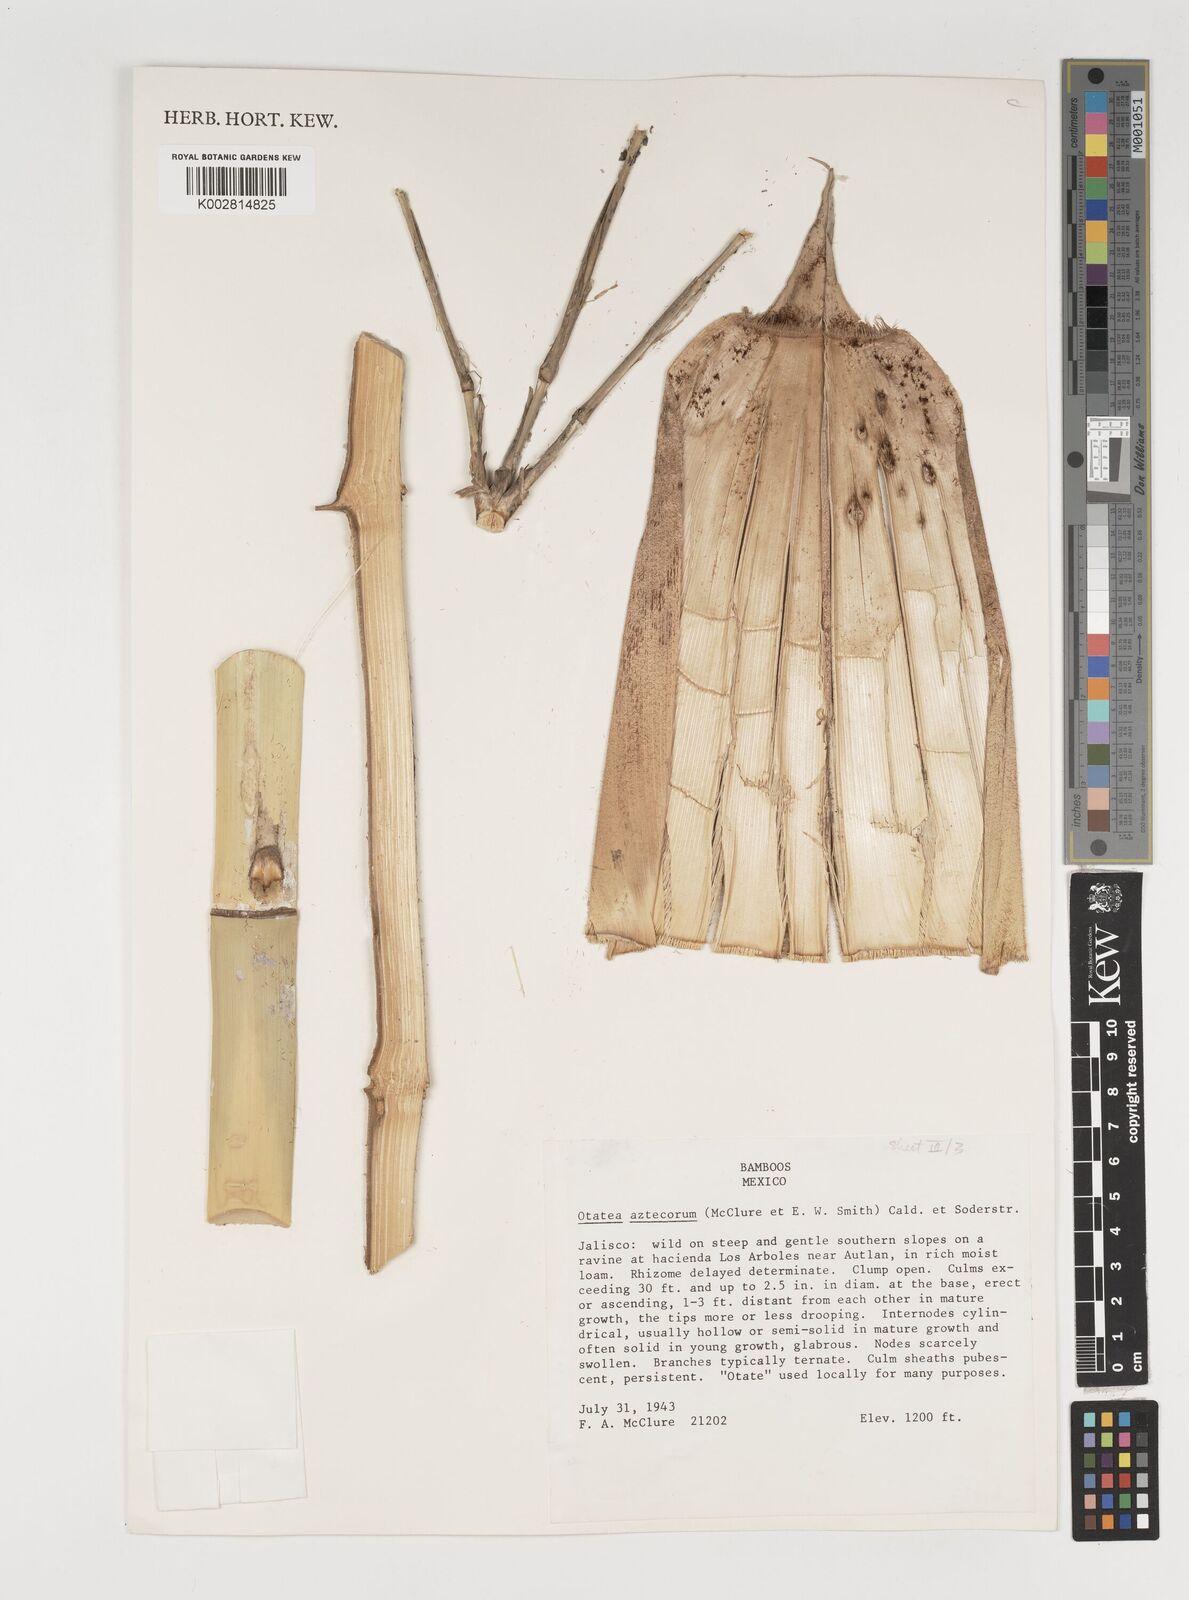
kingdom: Plantae
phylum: Tracheophyta
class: Liliopsida
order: Poales
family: Poaceae
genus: Olmeca
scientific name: Olmeca
